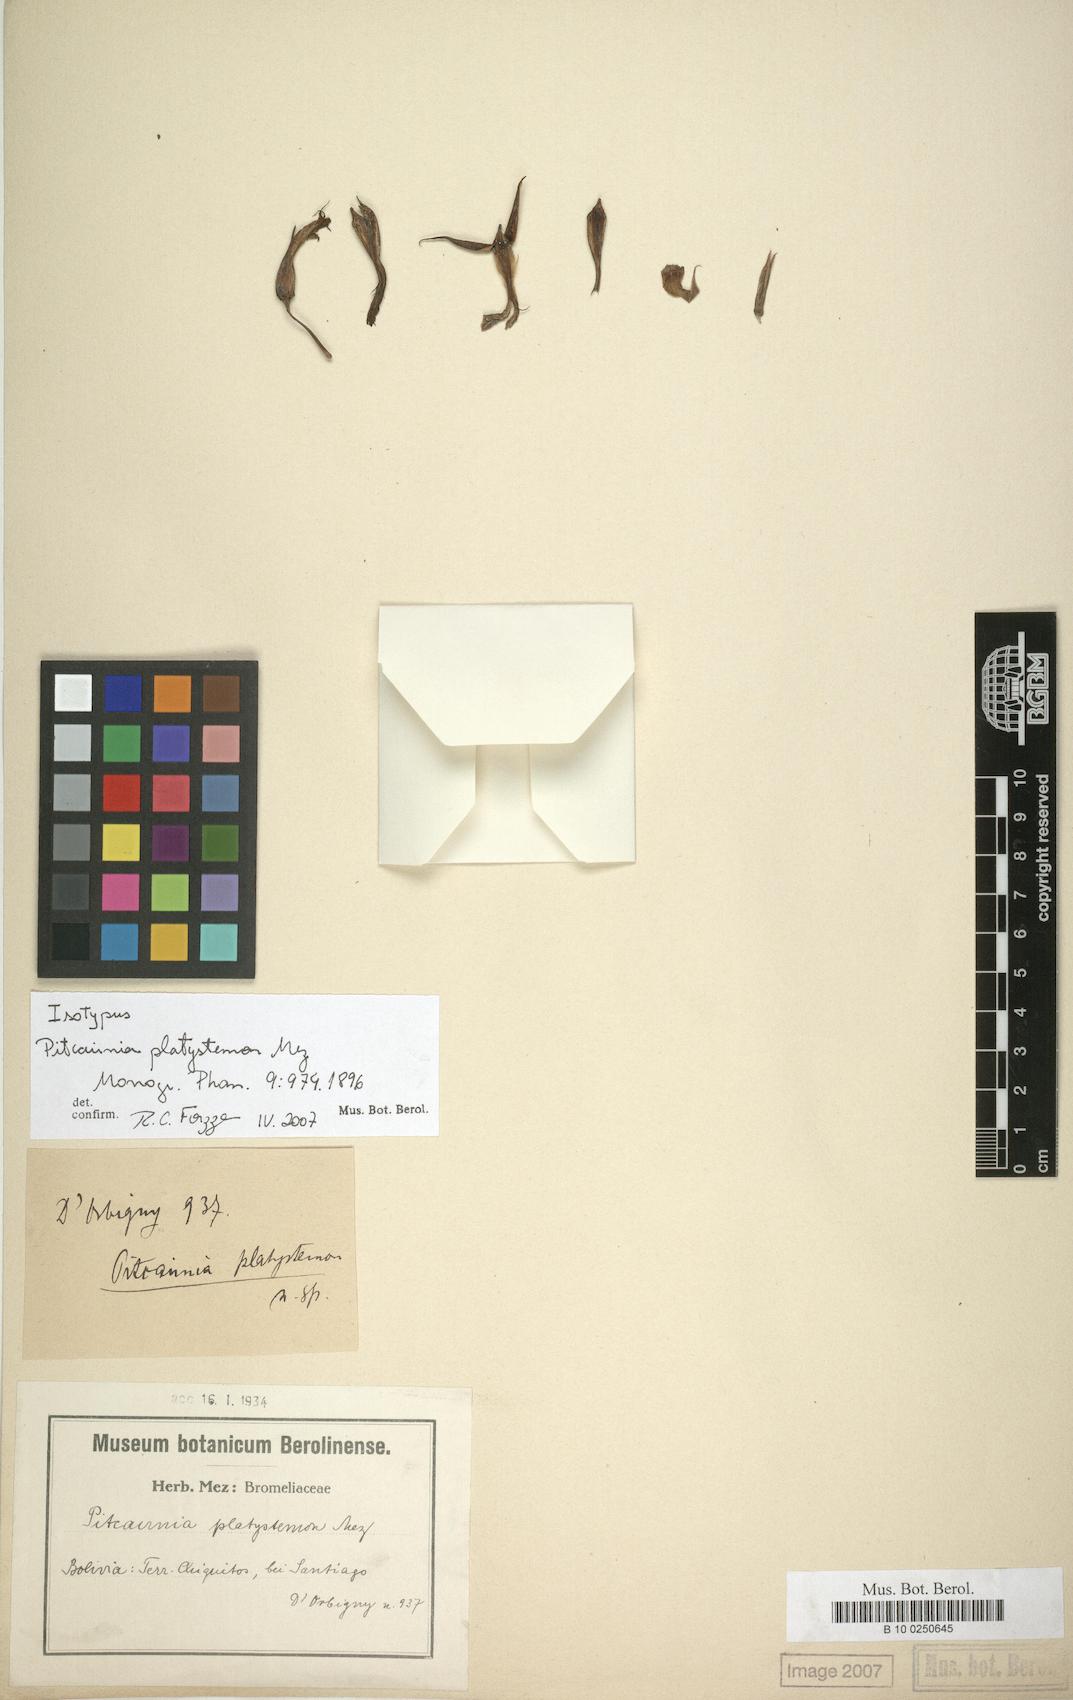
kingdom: Plantae
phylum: Tracheophyta
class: Liliopsida
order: Poales
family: Bromeliaceae
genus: Pitcairnia
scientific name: Pitcairnia platystemon
